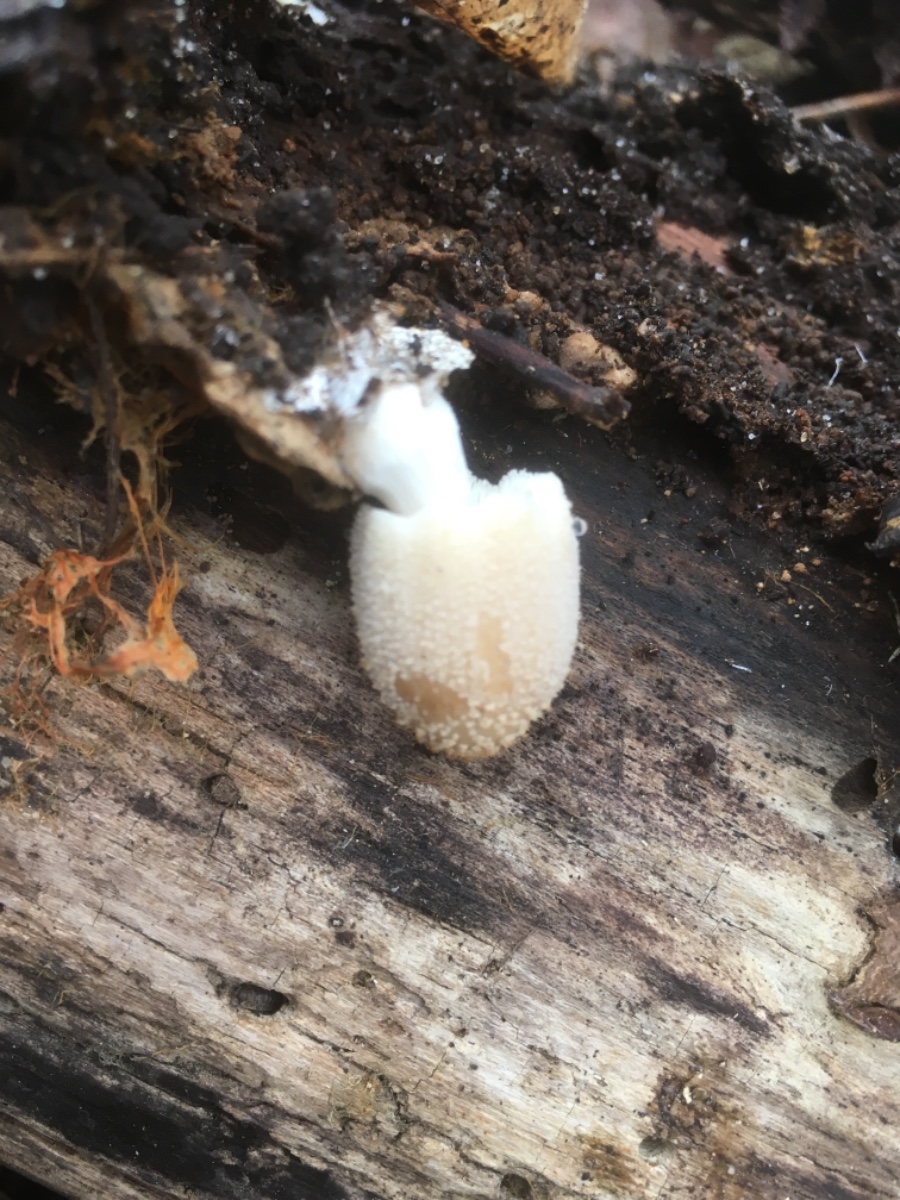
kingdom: Fungi
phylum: Basidiomycota
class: Agaricomycetes
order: Agaricales
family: Psathyrellaceae
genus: Coprinellus
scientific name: Coprinellus xanthothrix
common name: gultrådet blækhat
